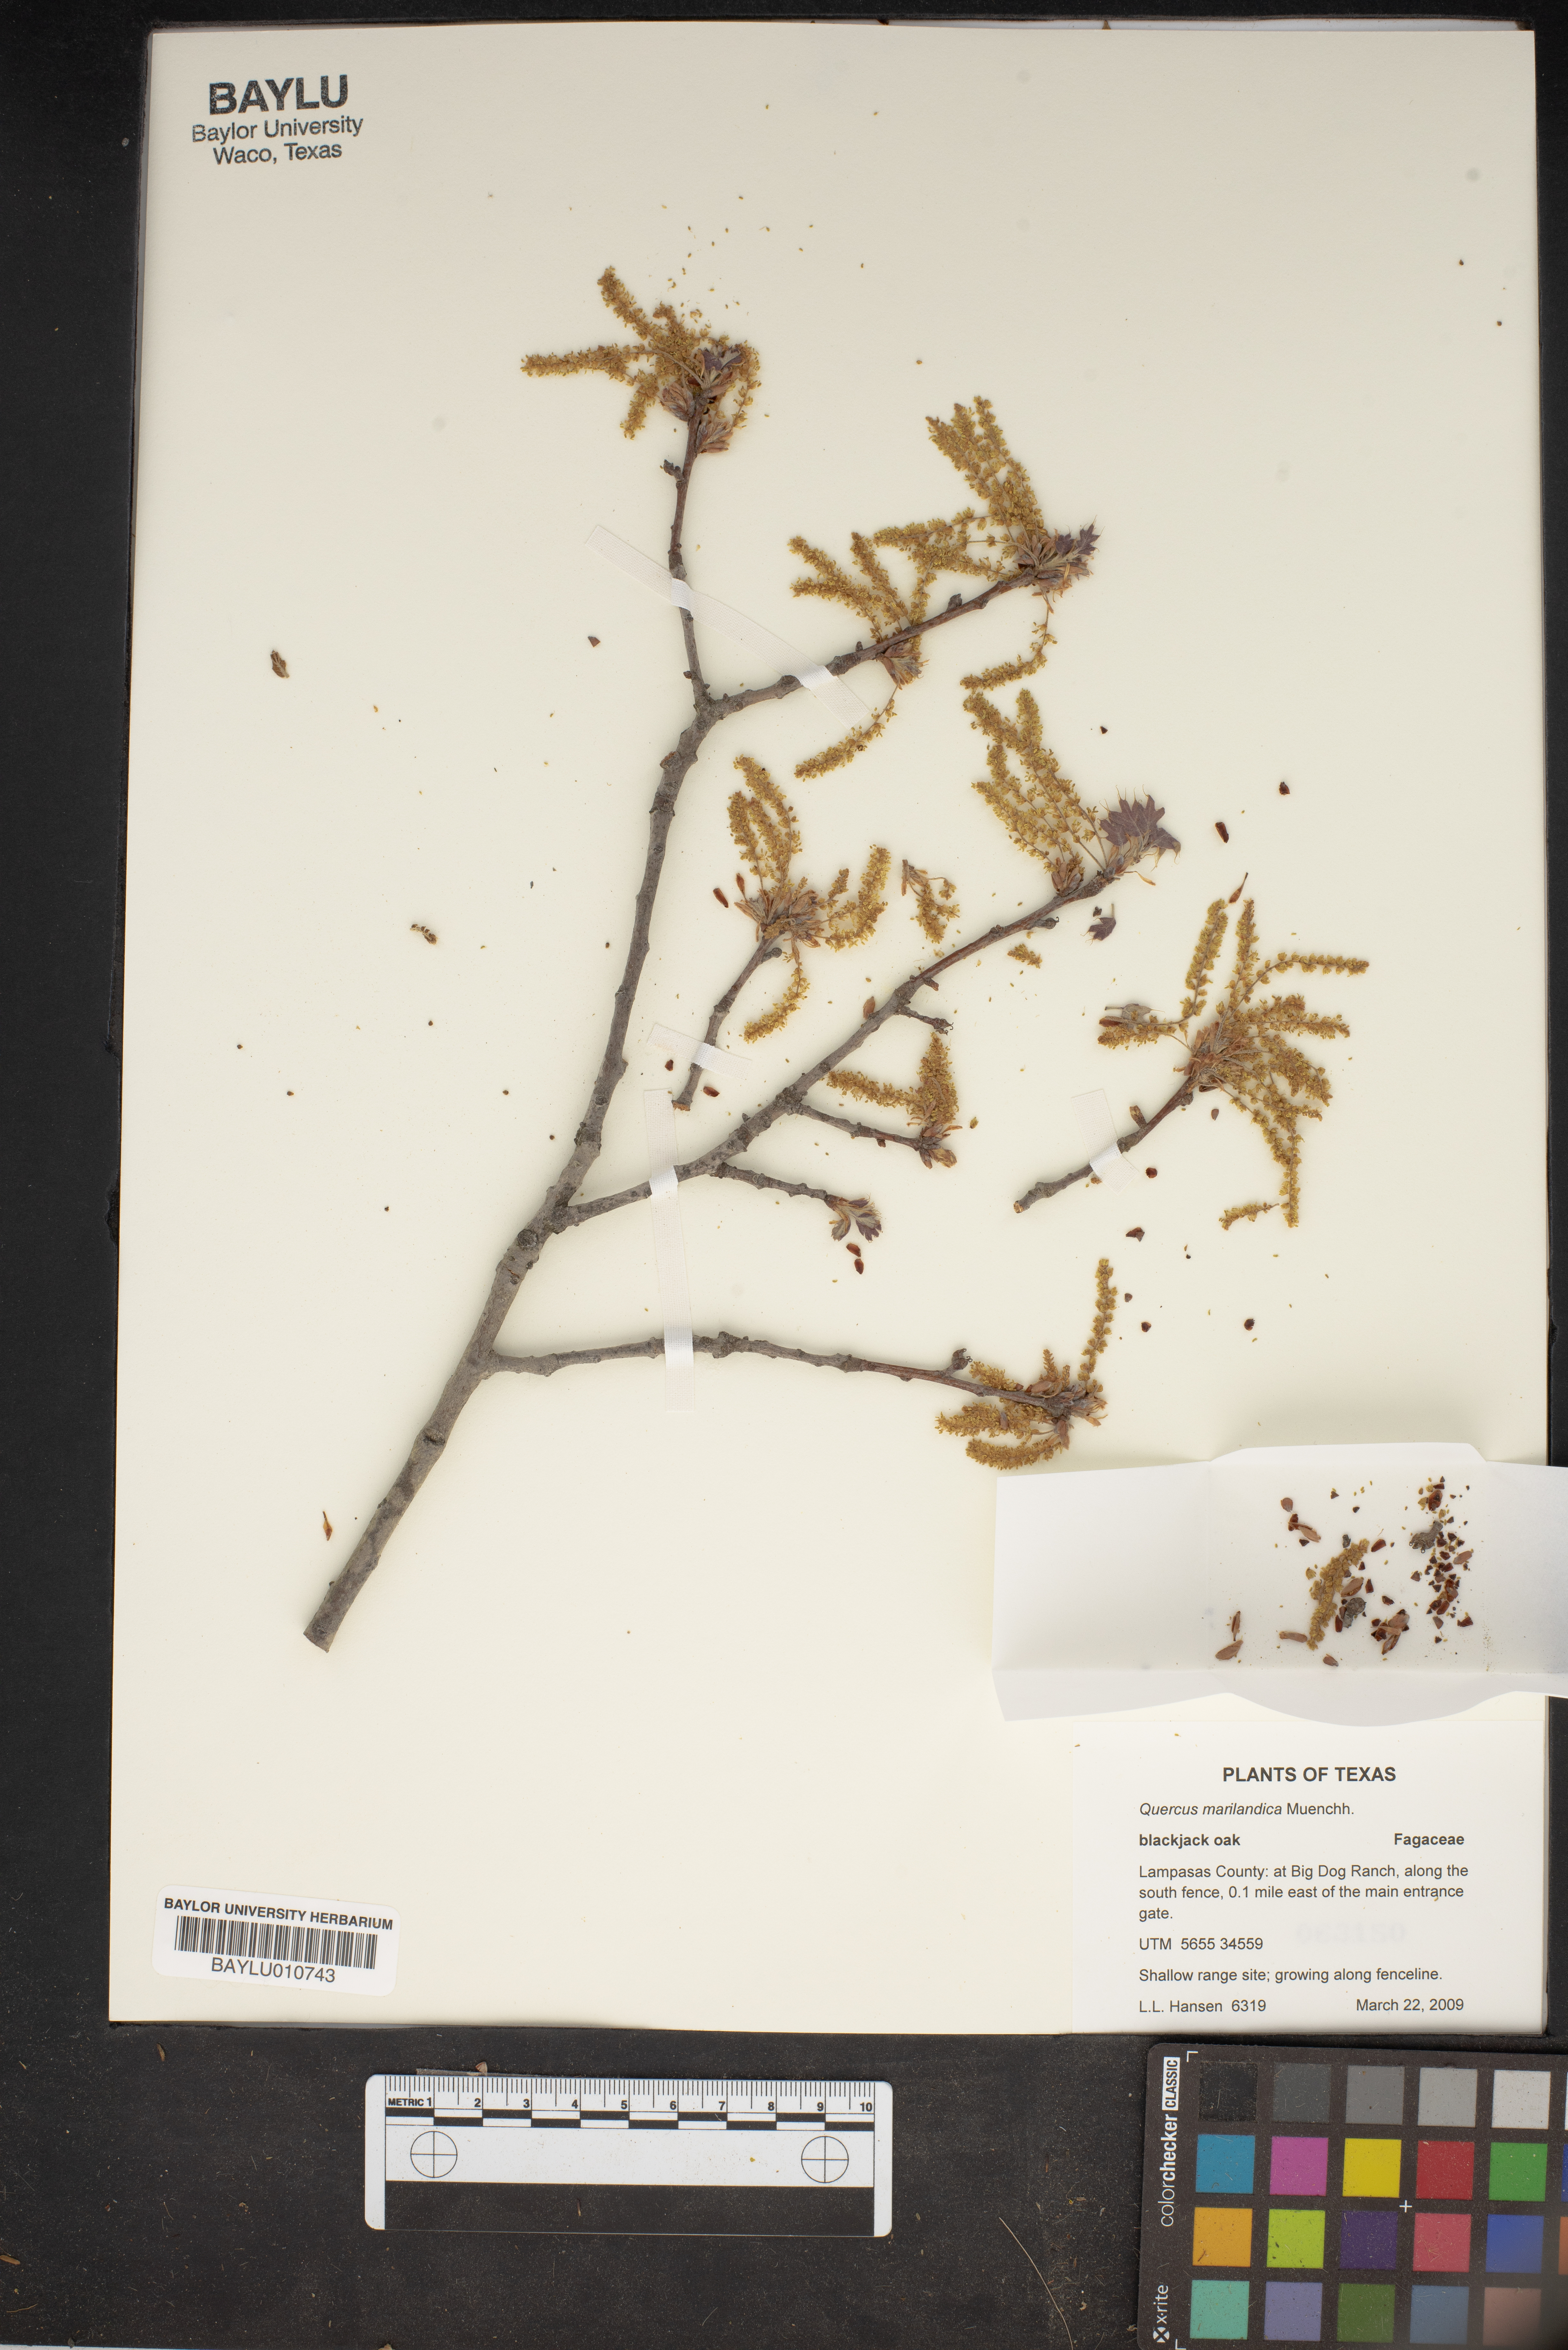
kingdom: Plantae
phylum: Tracheophyta
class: Magnoliopsida
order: Fagales
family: Fagaceae
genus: Quercus
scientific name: Quercus marilandica
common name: Blackjack oak
